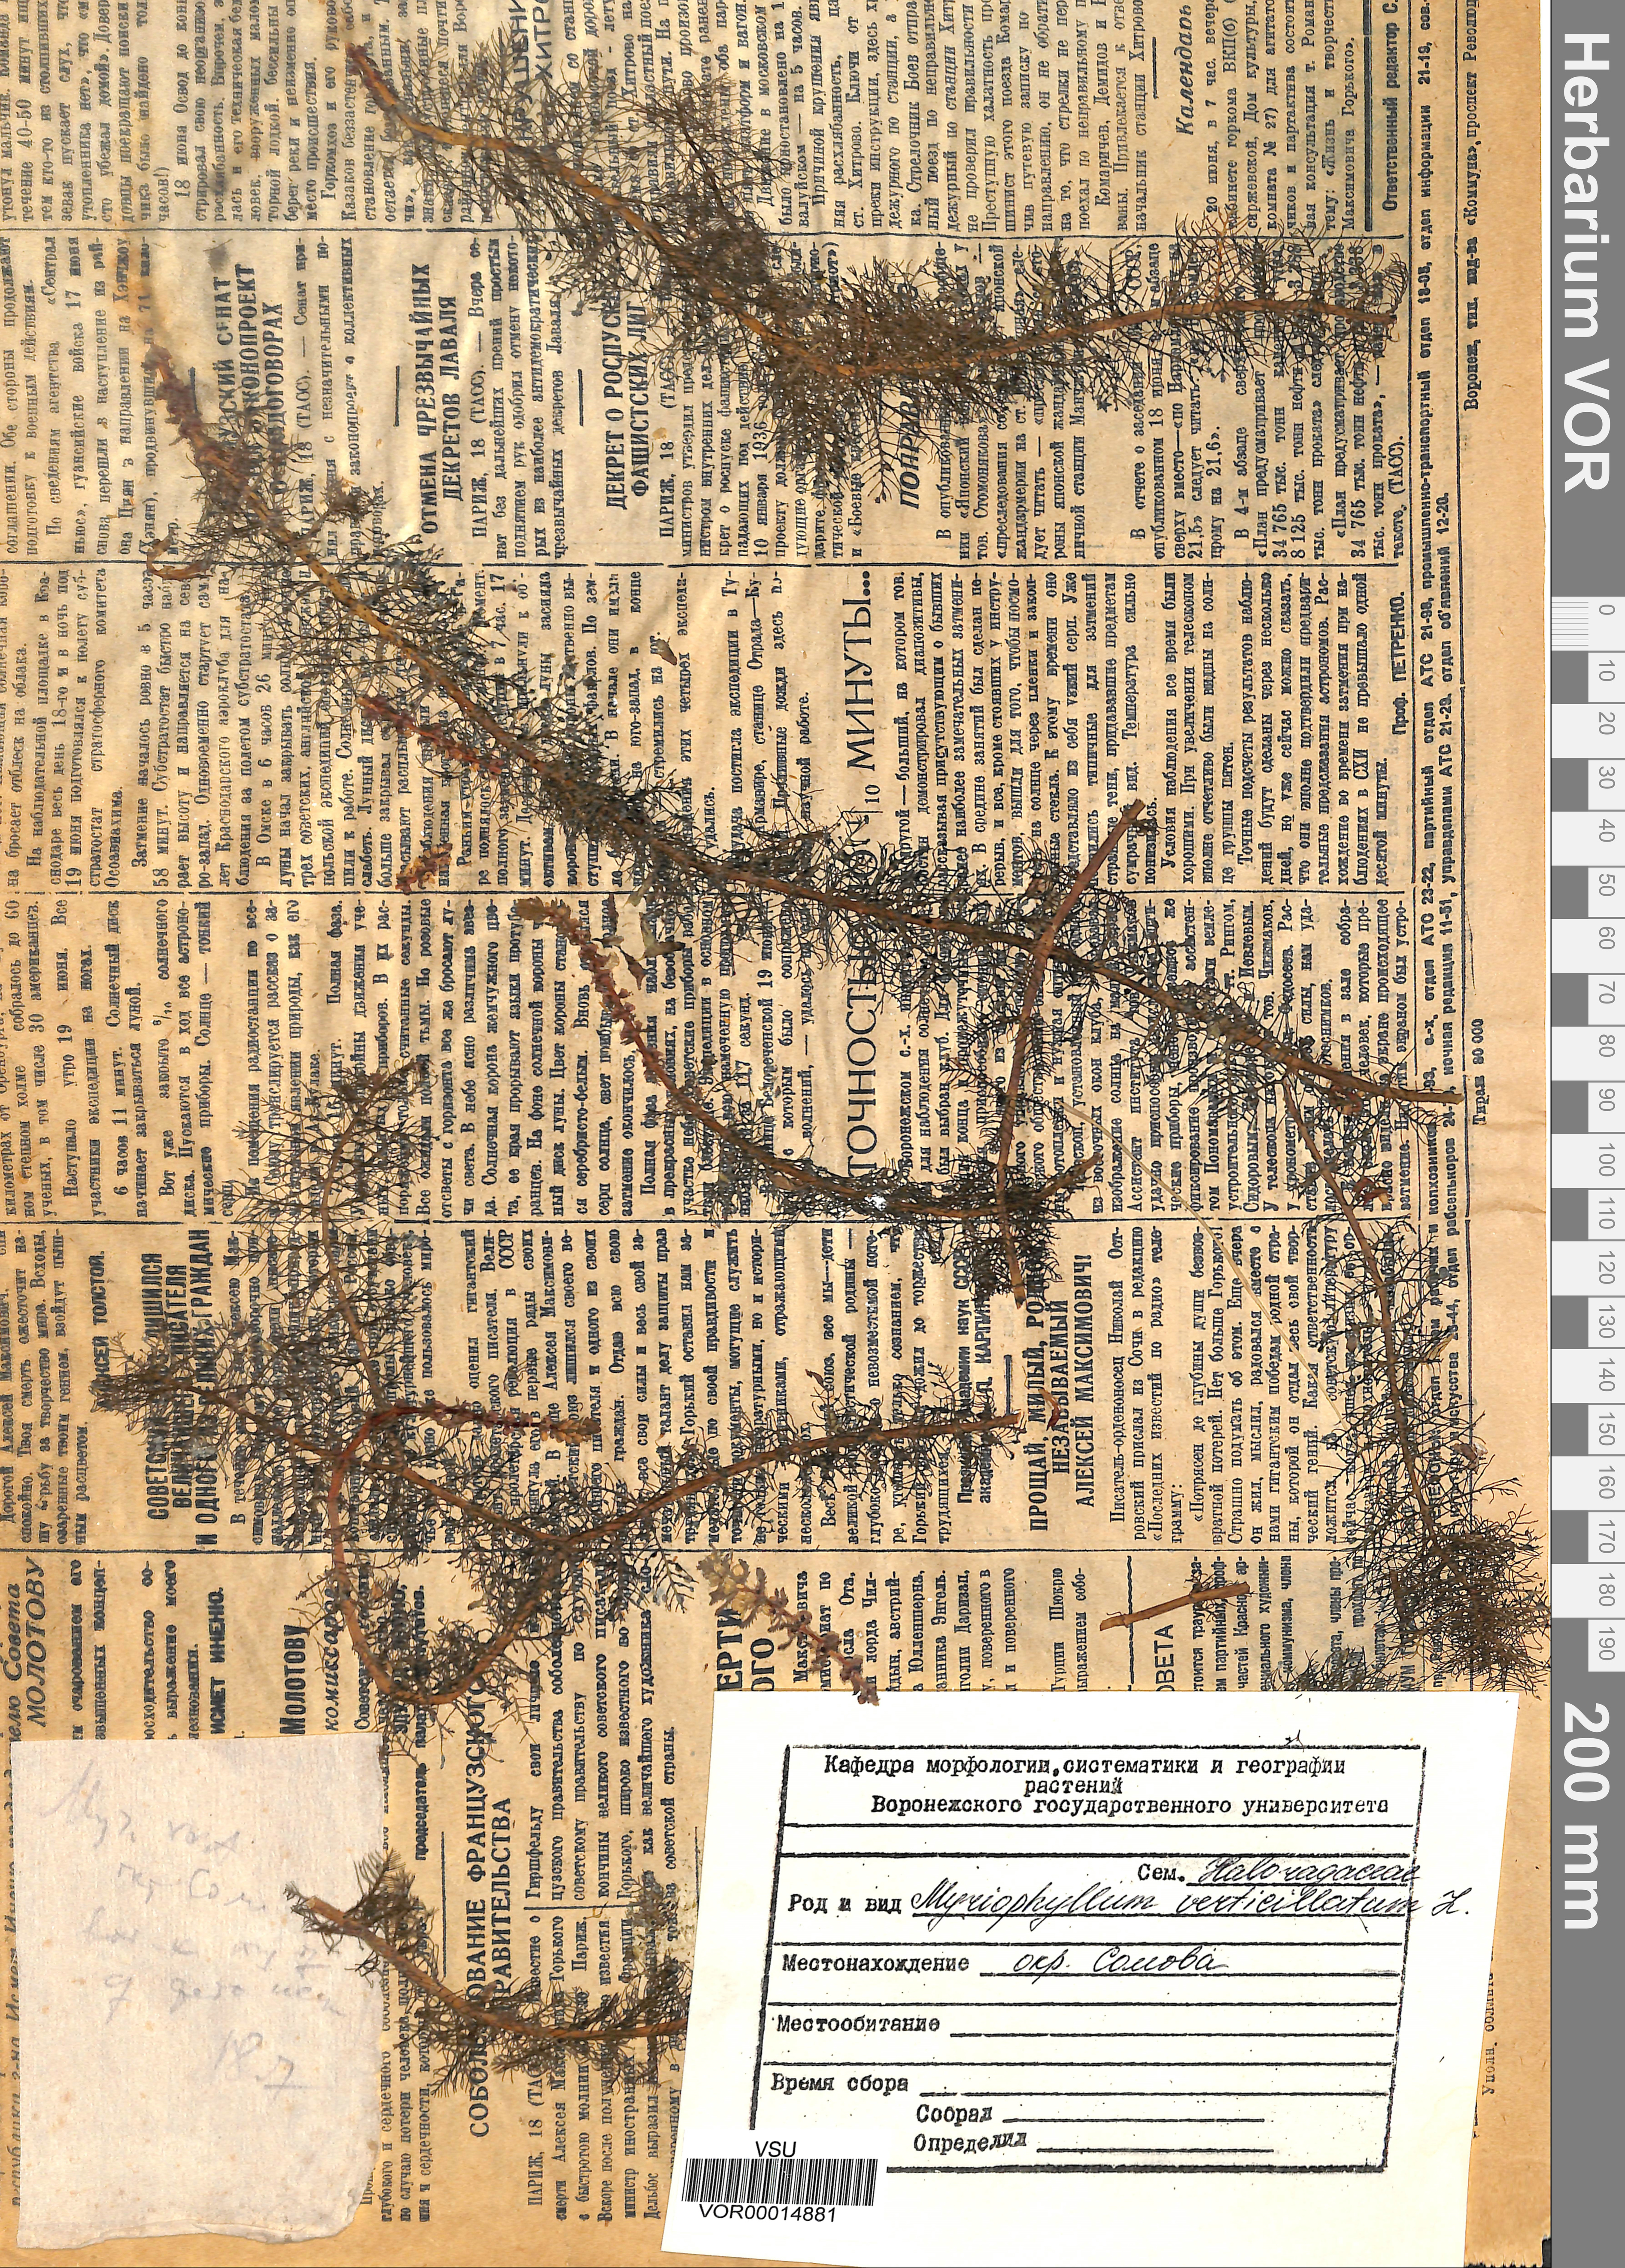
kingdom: Plantae
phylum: Tracheophyta
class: Magnoliopsida
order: Saxifragales
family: Haloragaceae
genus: Myriophyllum
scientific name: Myriophyllum verticillatum
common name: Whorled water-milfoil
